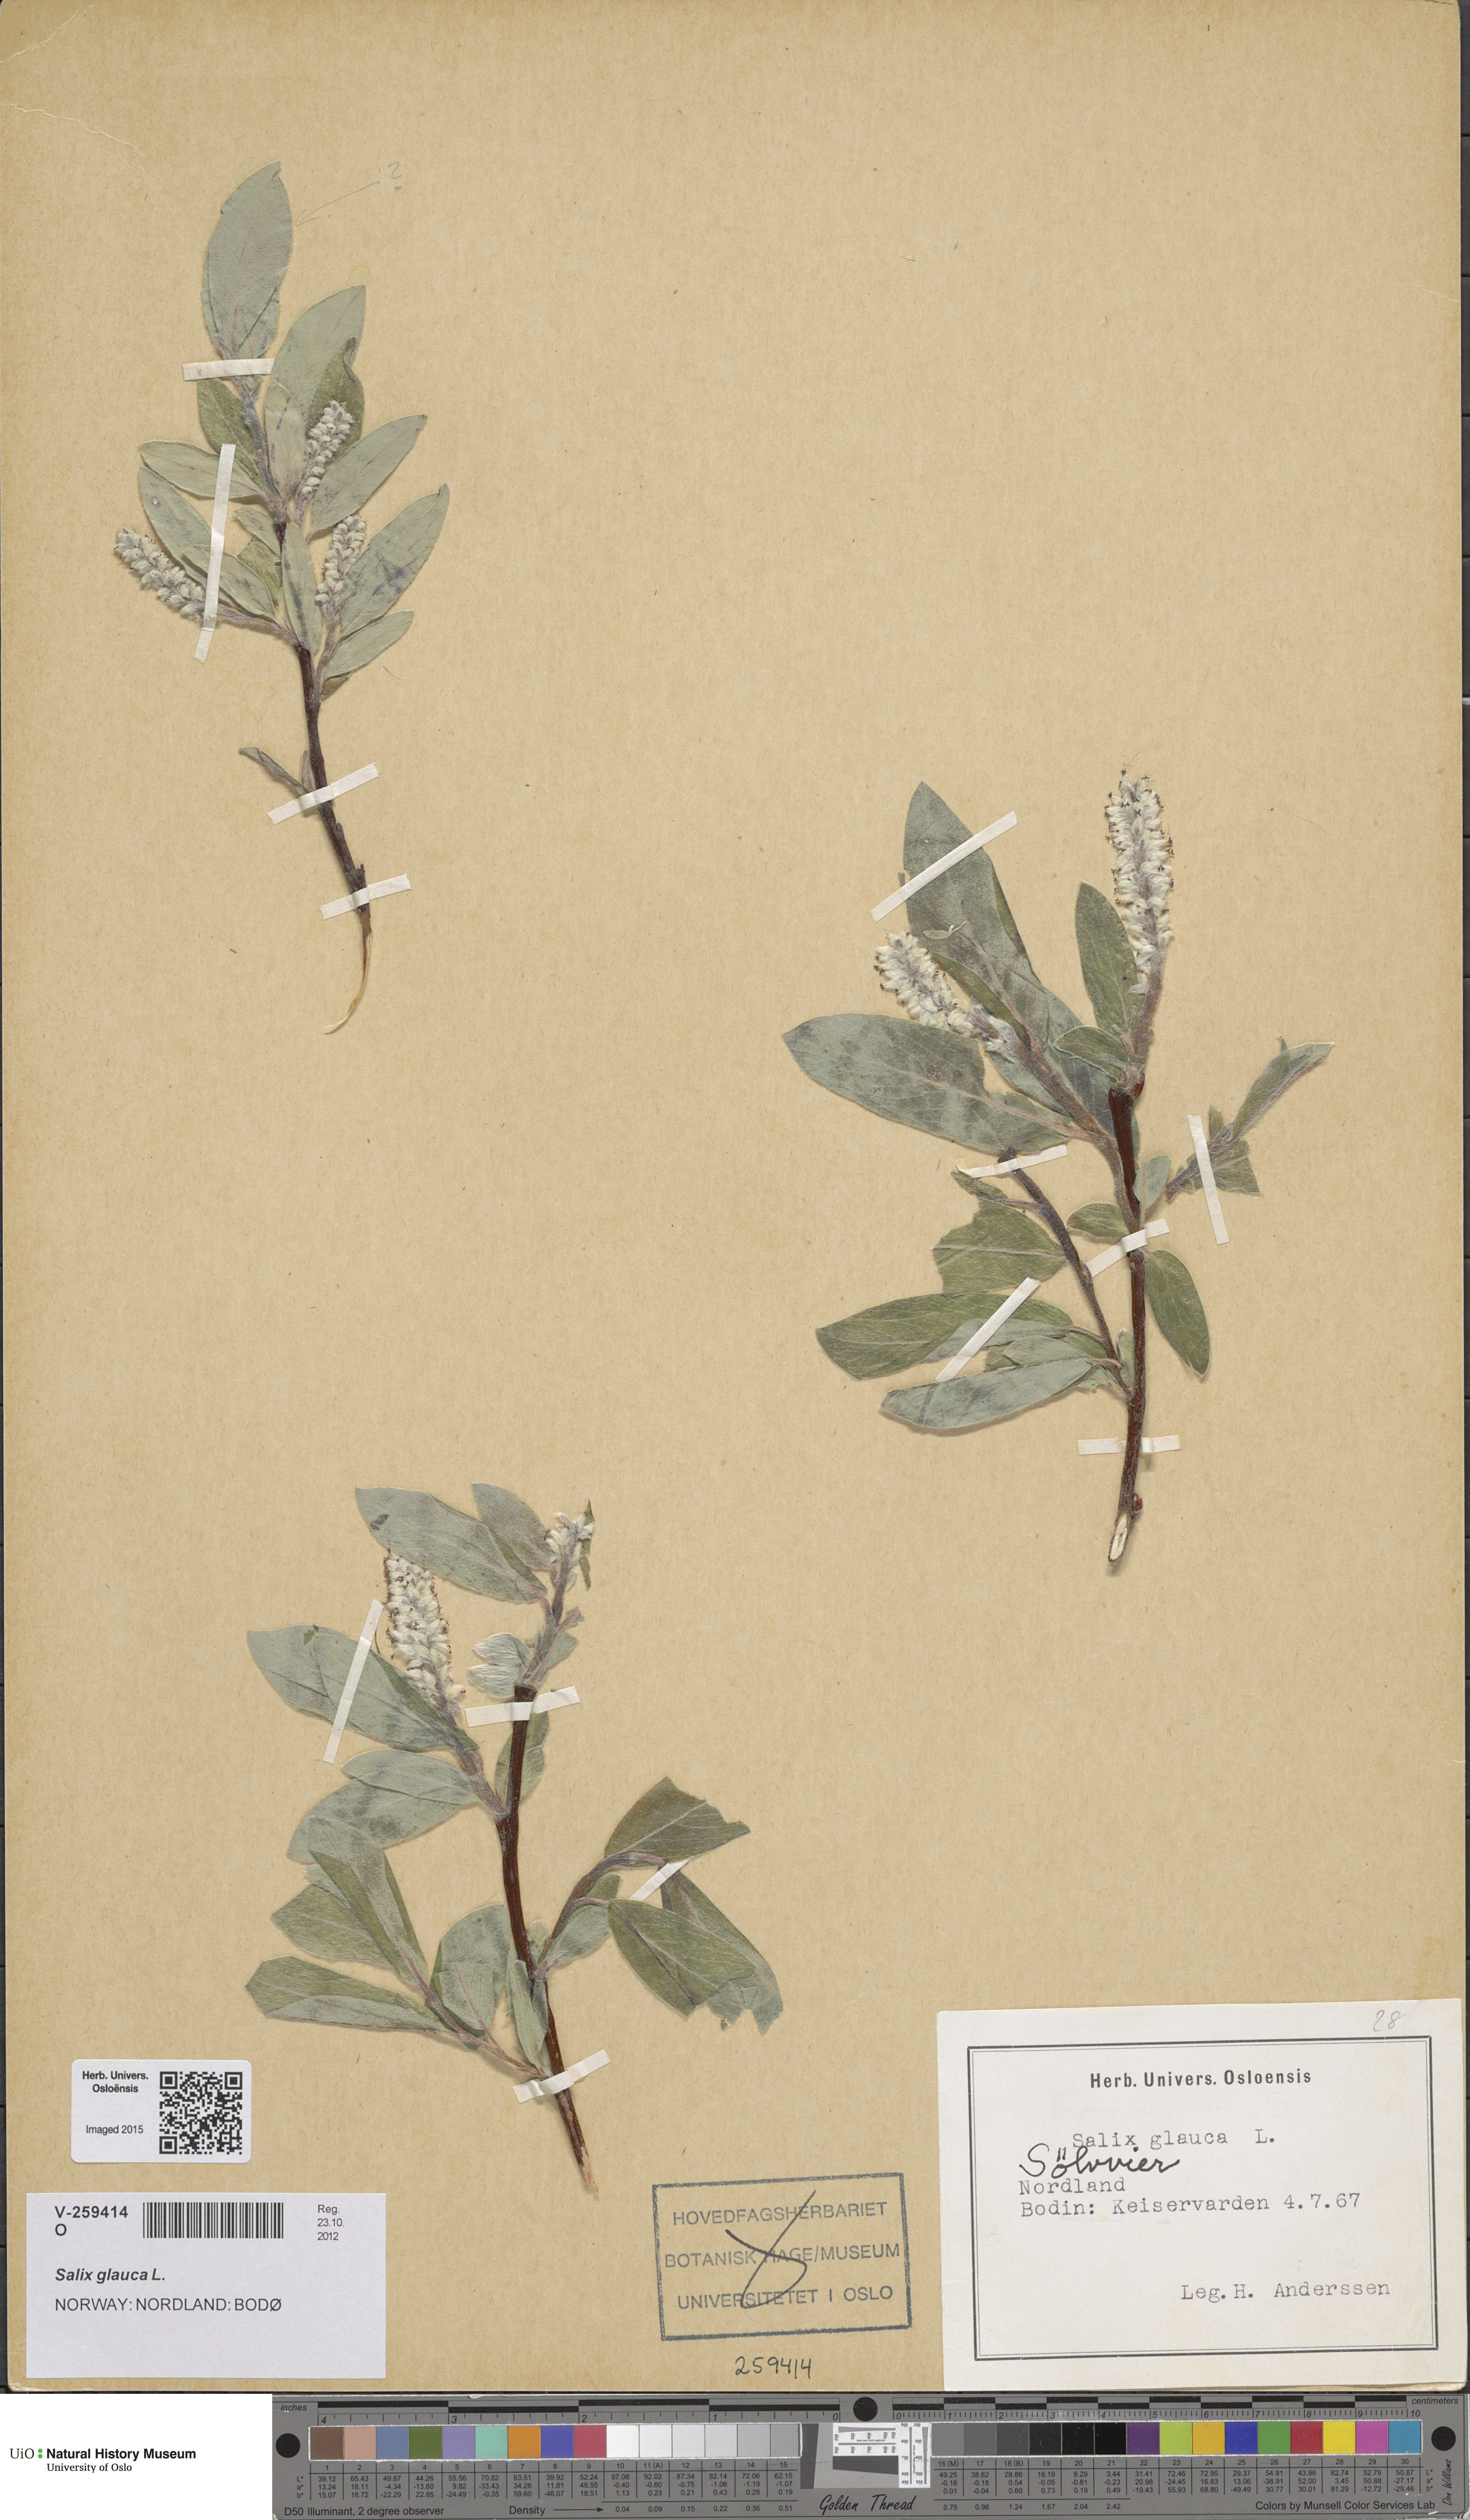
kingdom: Plantae
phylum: Tracheophyta
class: Magnoliopsida
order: Malpighiales
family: Salicaceae
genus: Salix
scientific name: Salix glauca
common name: Glaucous willow
